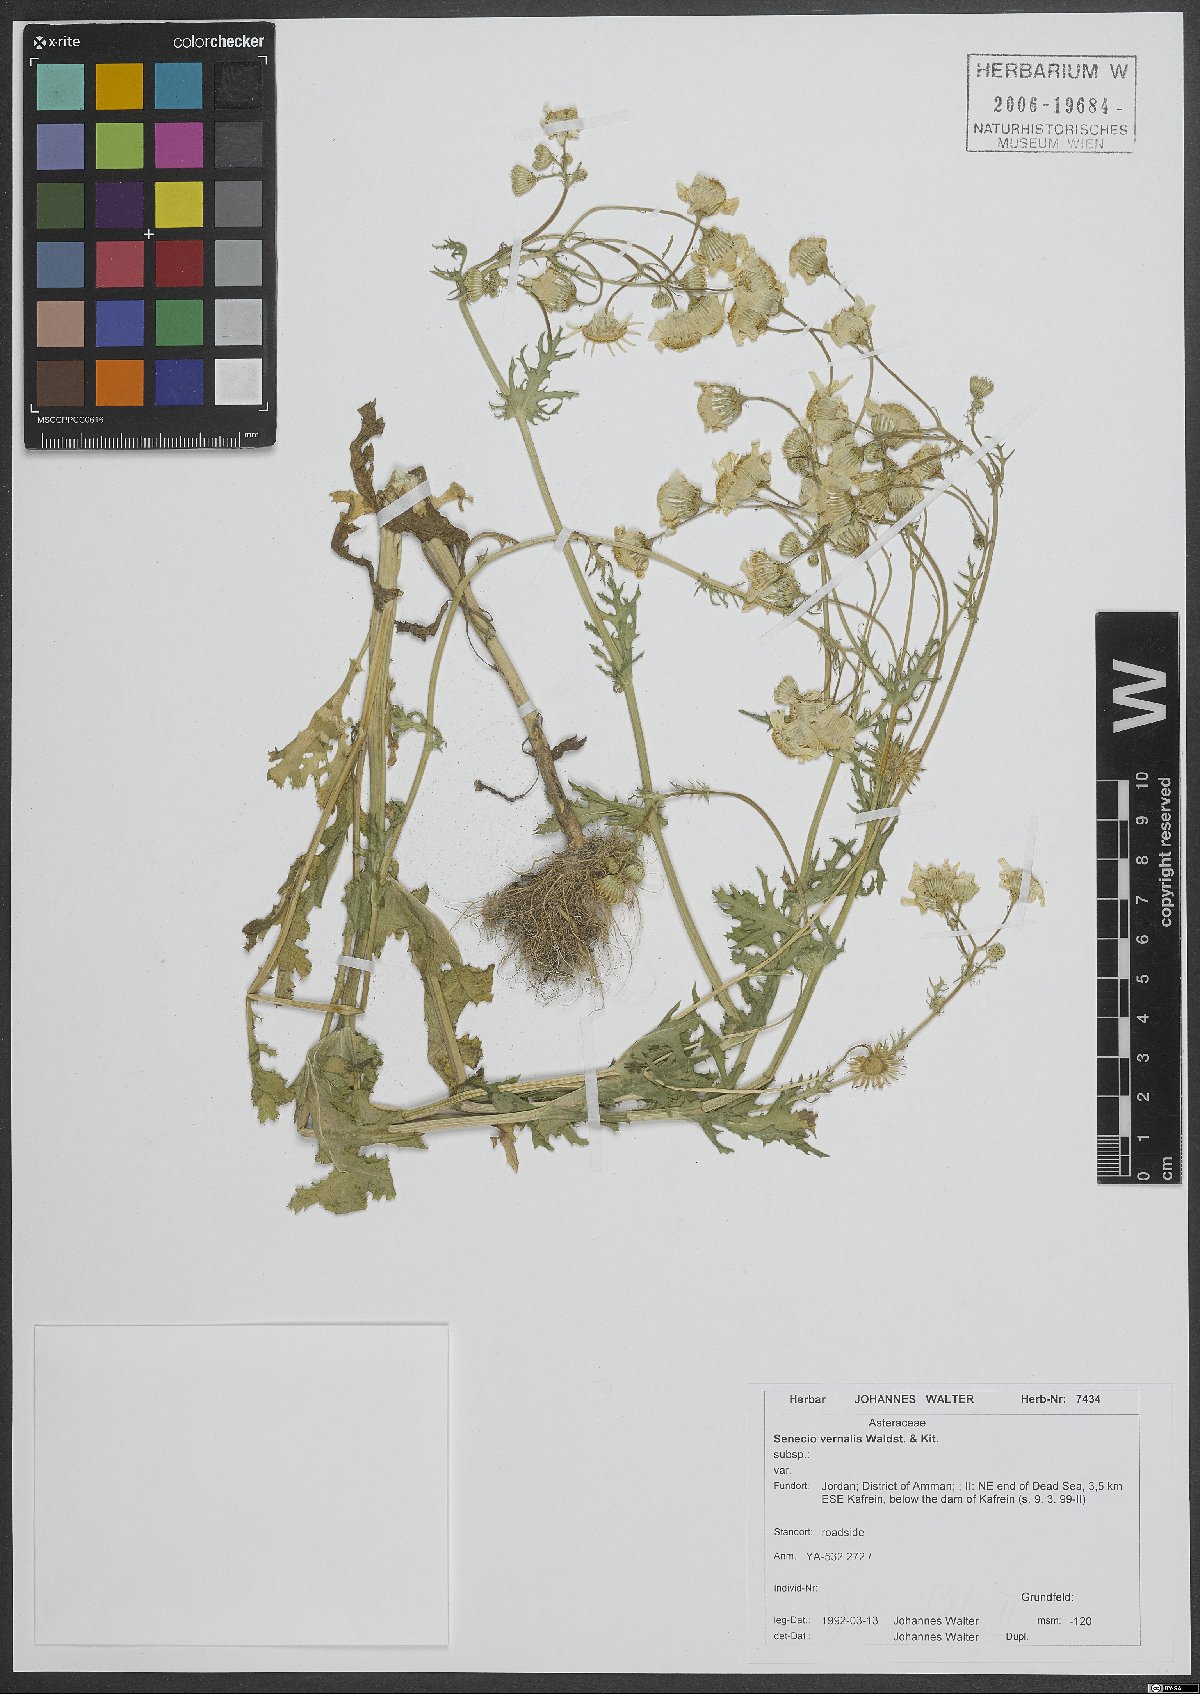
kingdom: Plantae
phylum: Tracheophyta
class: Magnoliopsida
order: Asterales
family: Asteraceae
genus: Senecio
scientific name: Senecio vernalis
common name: Eastern groundsel
